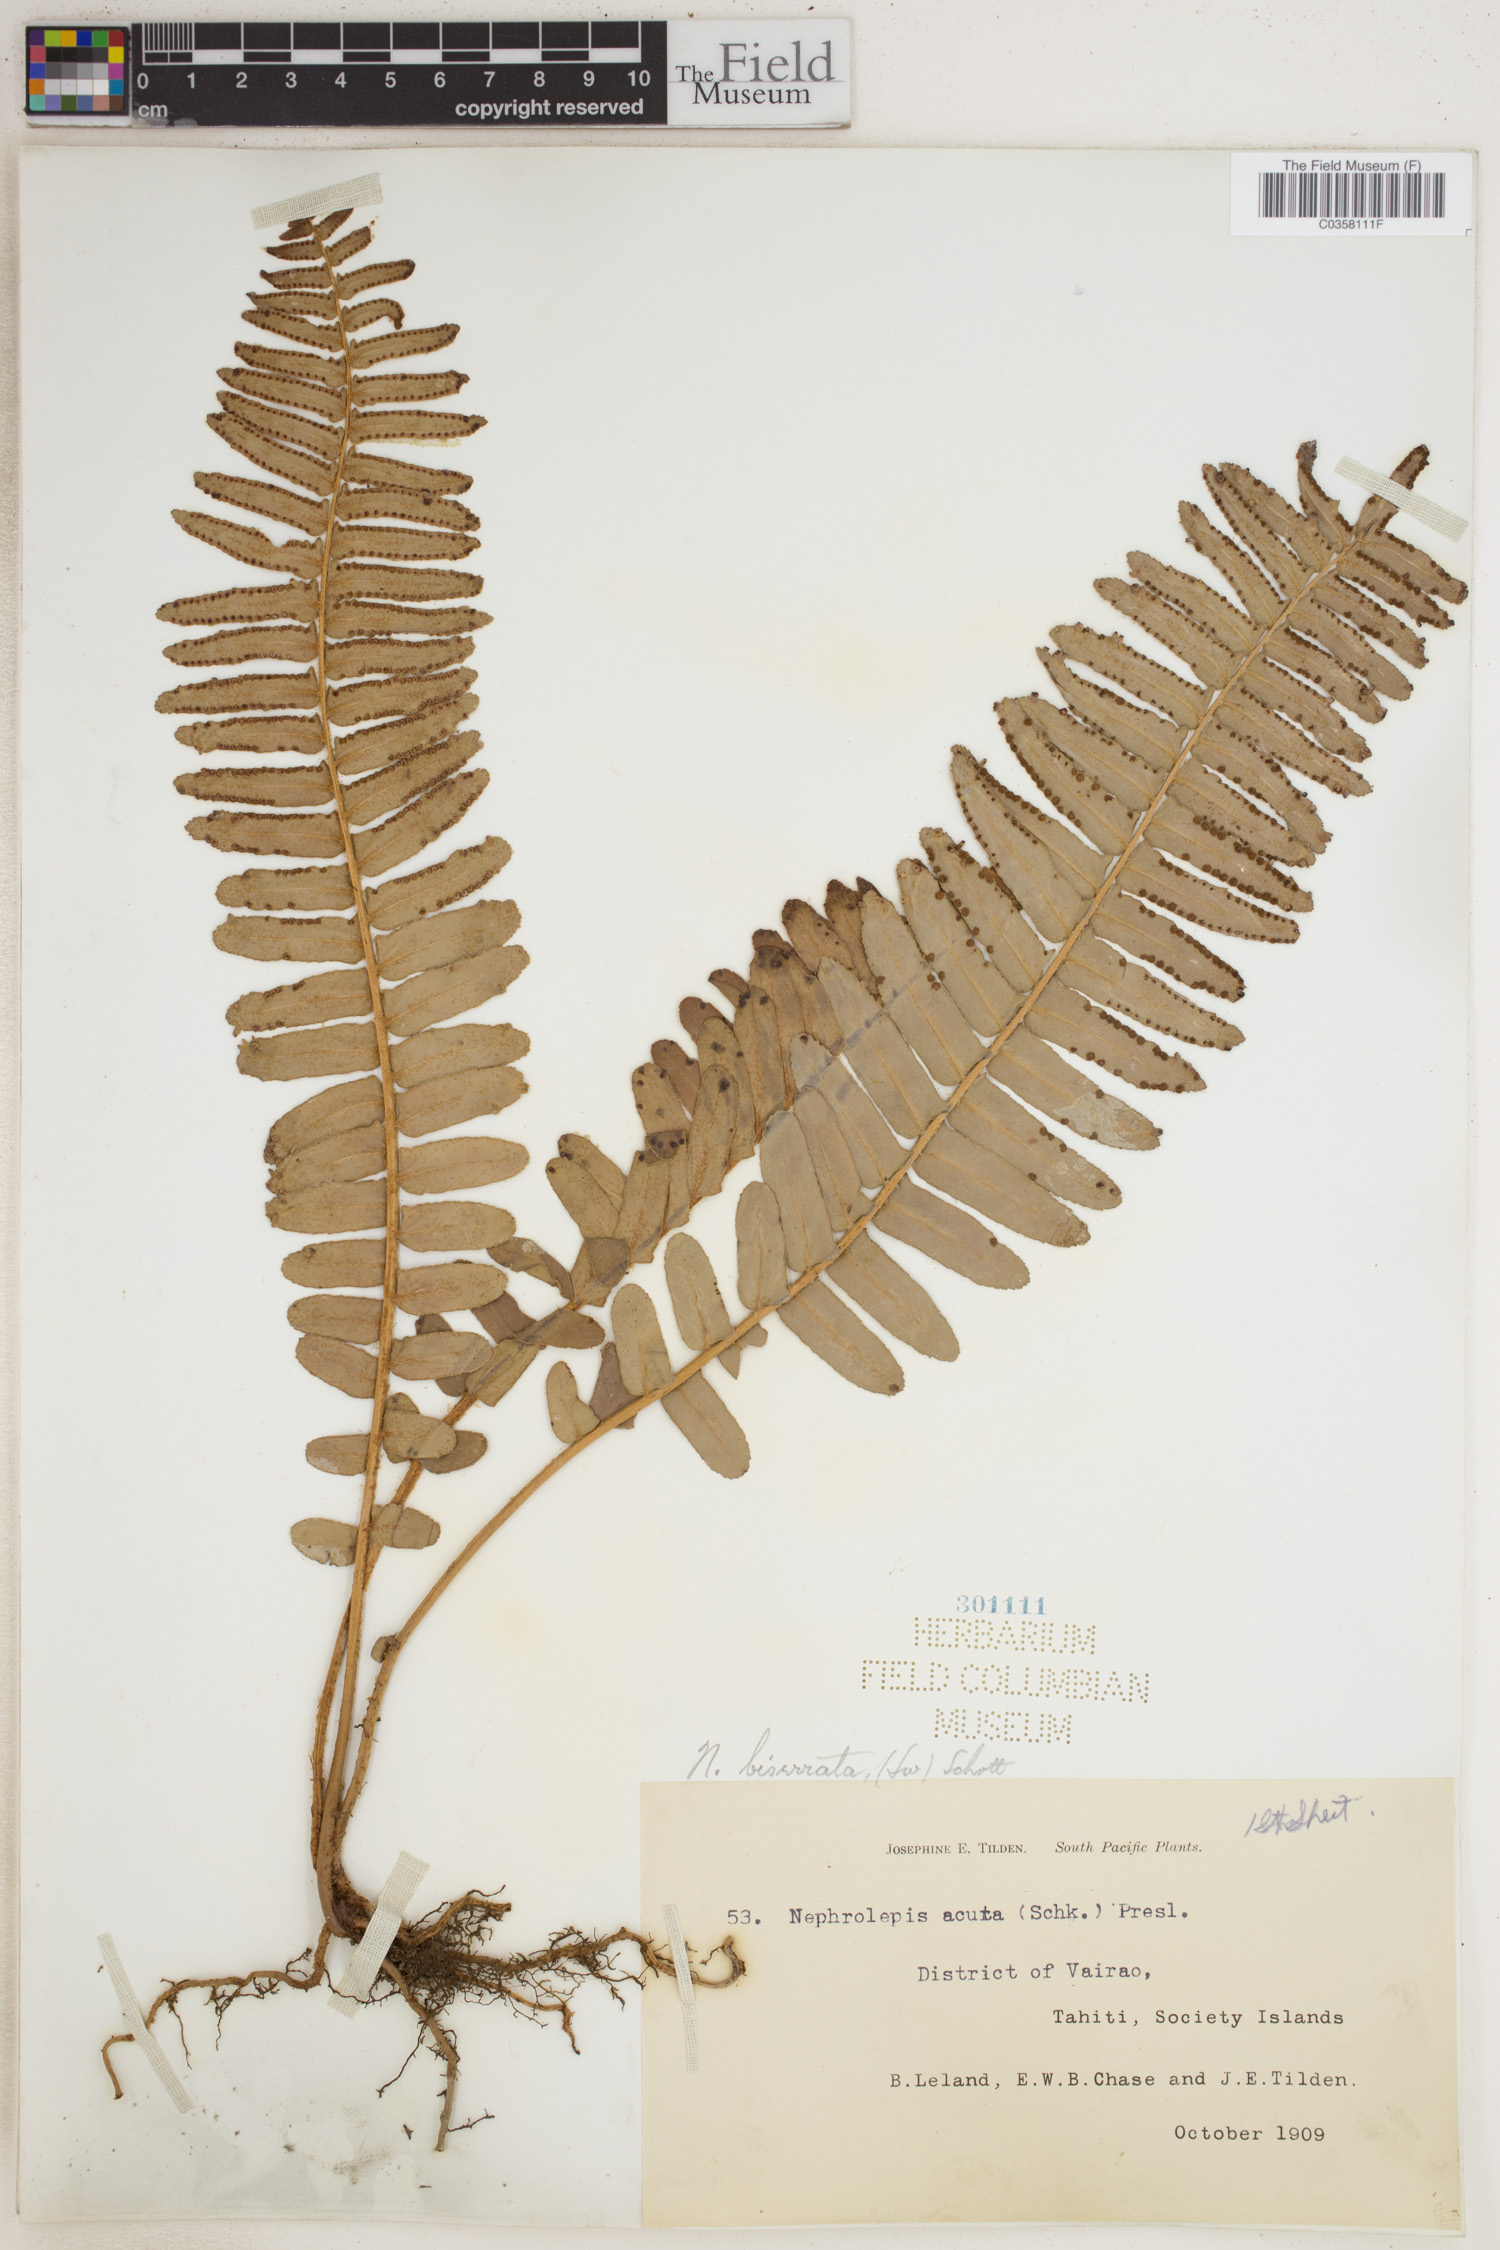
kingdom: Plantae
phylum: Tracheophyta
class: Polypodiopsida
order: Polypodiales
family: Nephrolepidaceae
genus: Nephrolepis
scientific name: Nephrolepis biserrata
